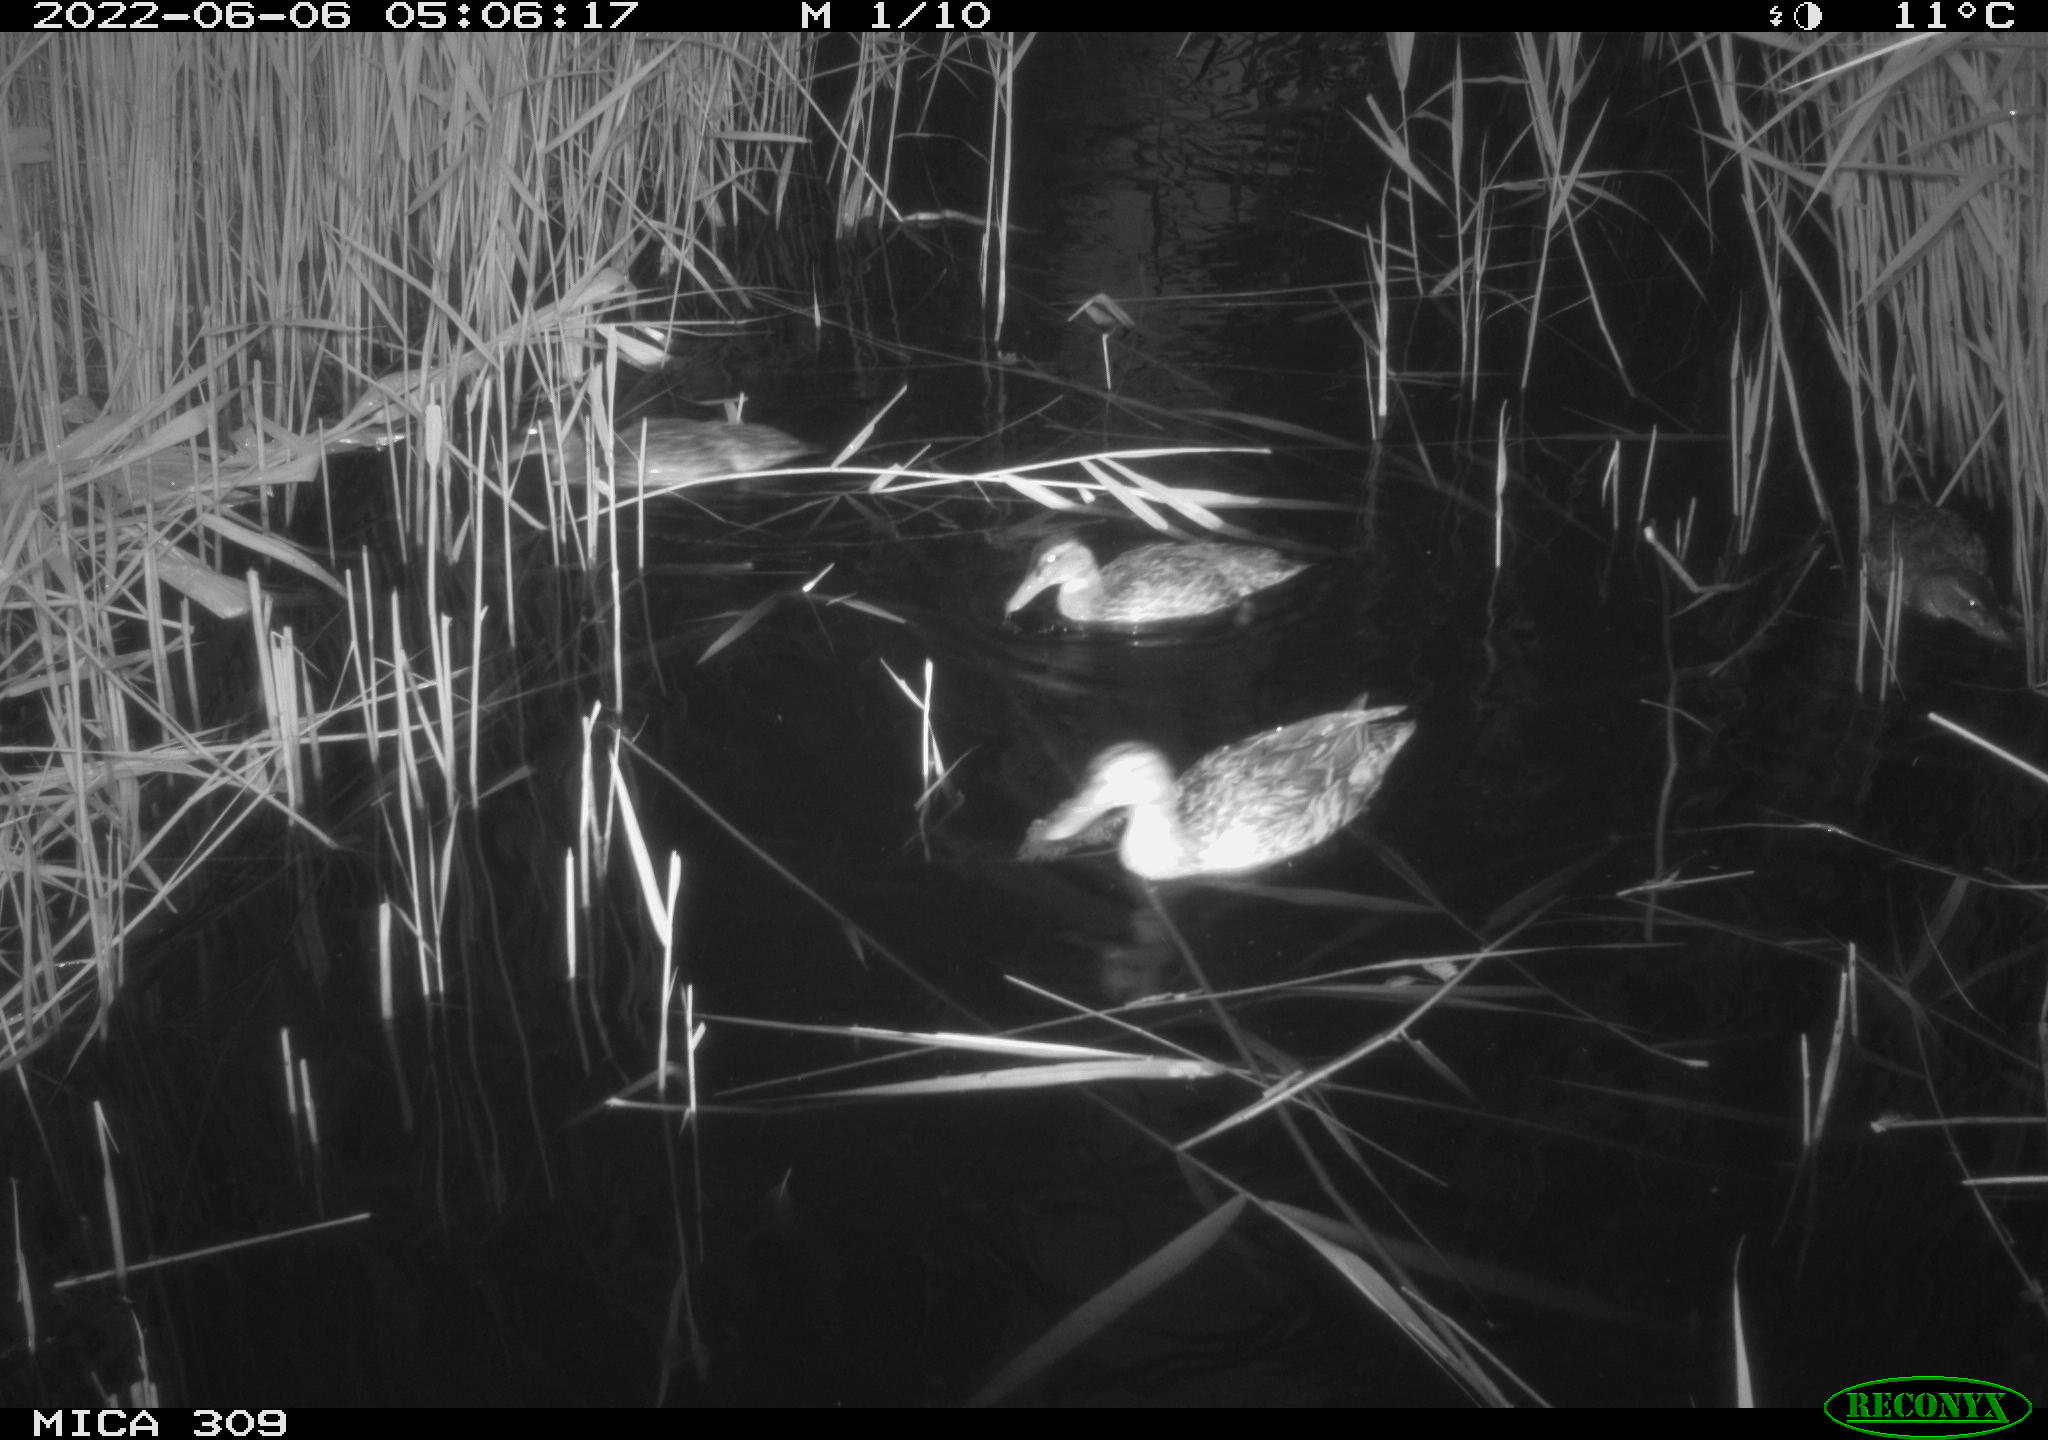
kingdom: Animalia
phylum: Chordata
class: Aves
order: Anseriformes
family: Anatidae
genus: Anas
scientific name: Anas platyrhynchos
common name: Mallard
